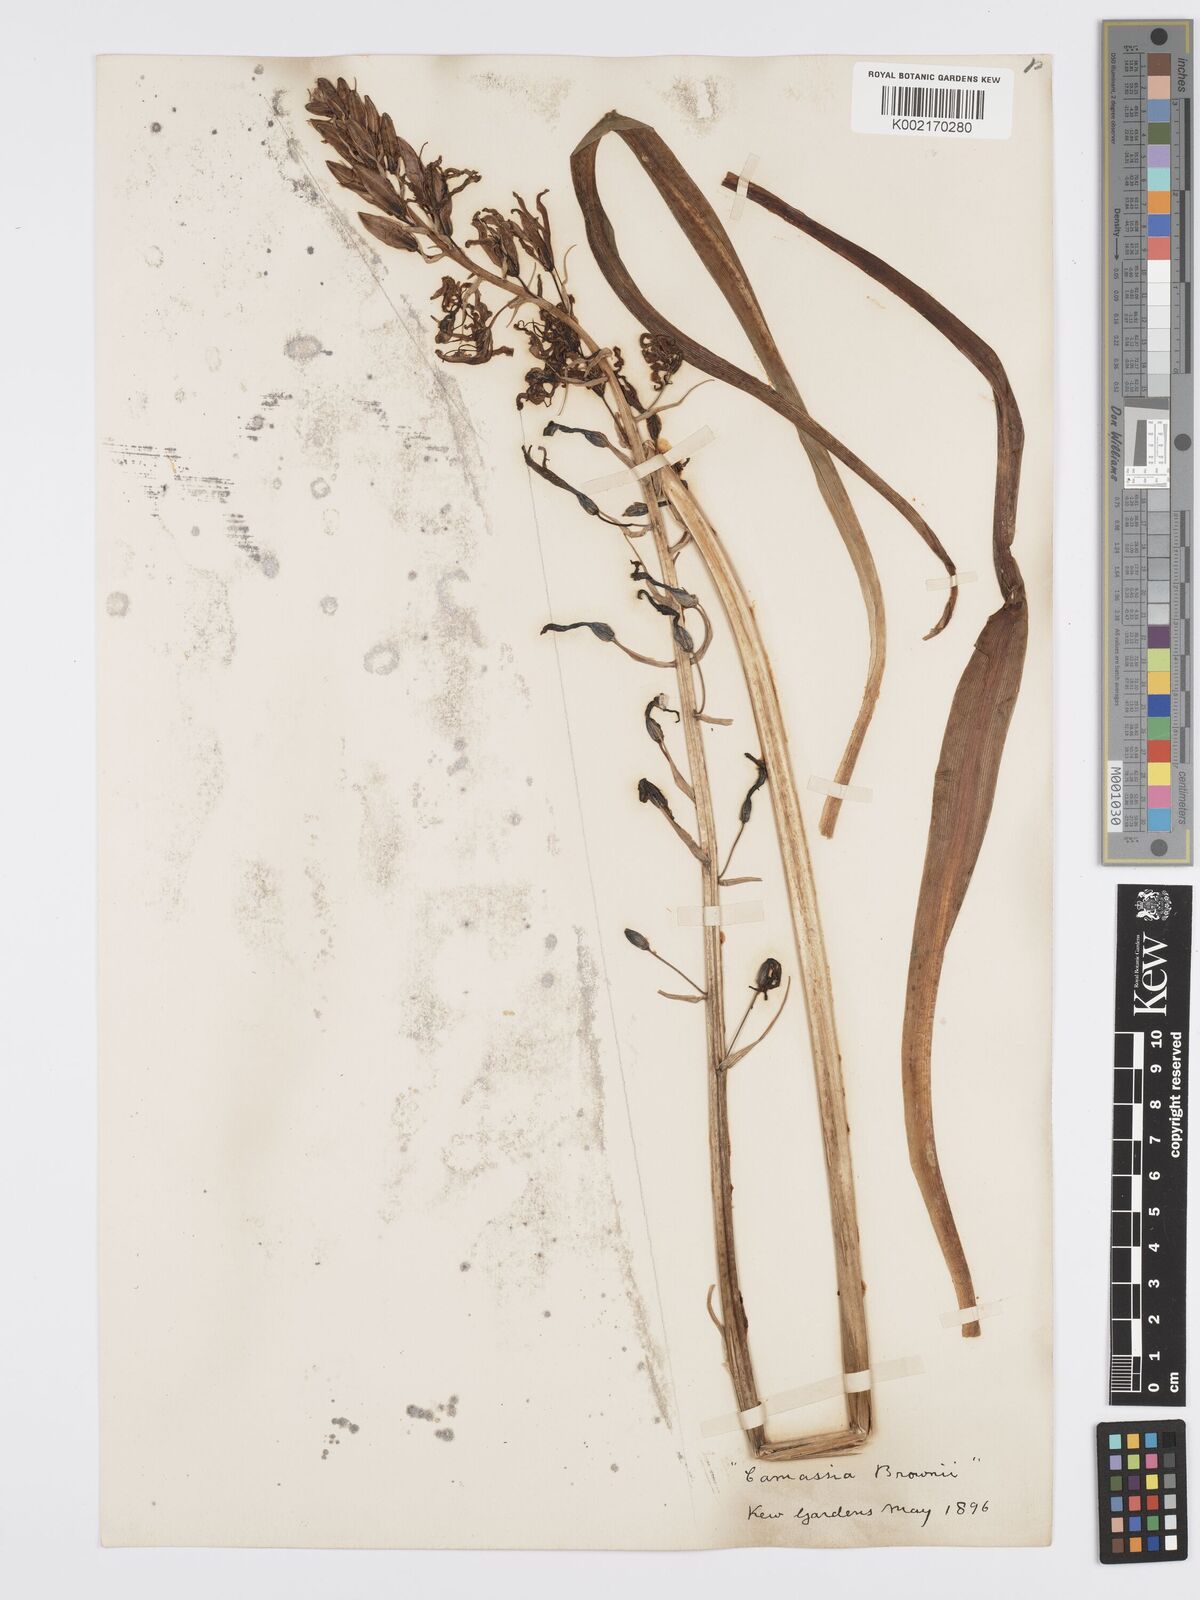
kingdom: Plantae
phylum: Tracheophyta
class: Liliopsida
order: Asparagales
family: Asparagaceae
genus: Camassia
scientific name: Camassia leichtlinii
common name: Leichtlin's camas
